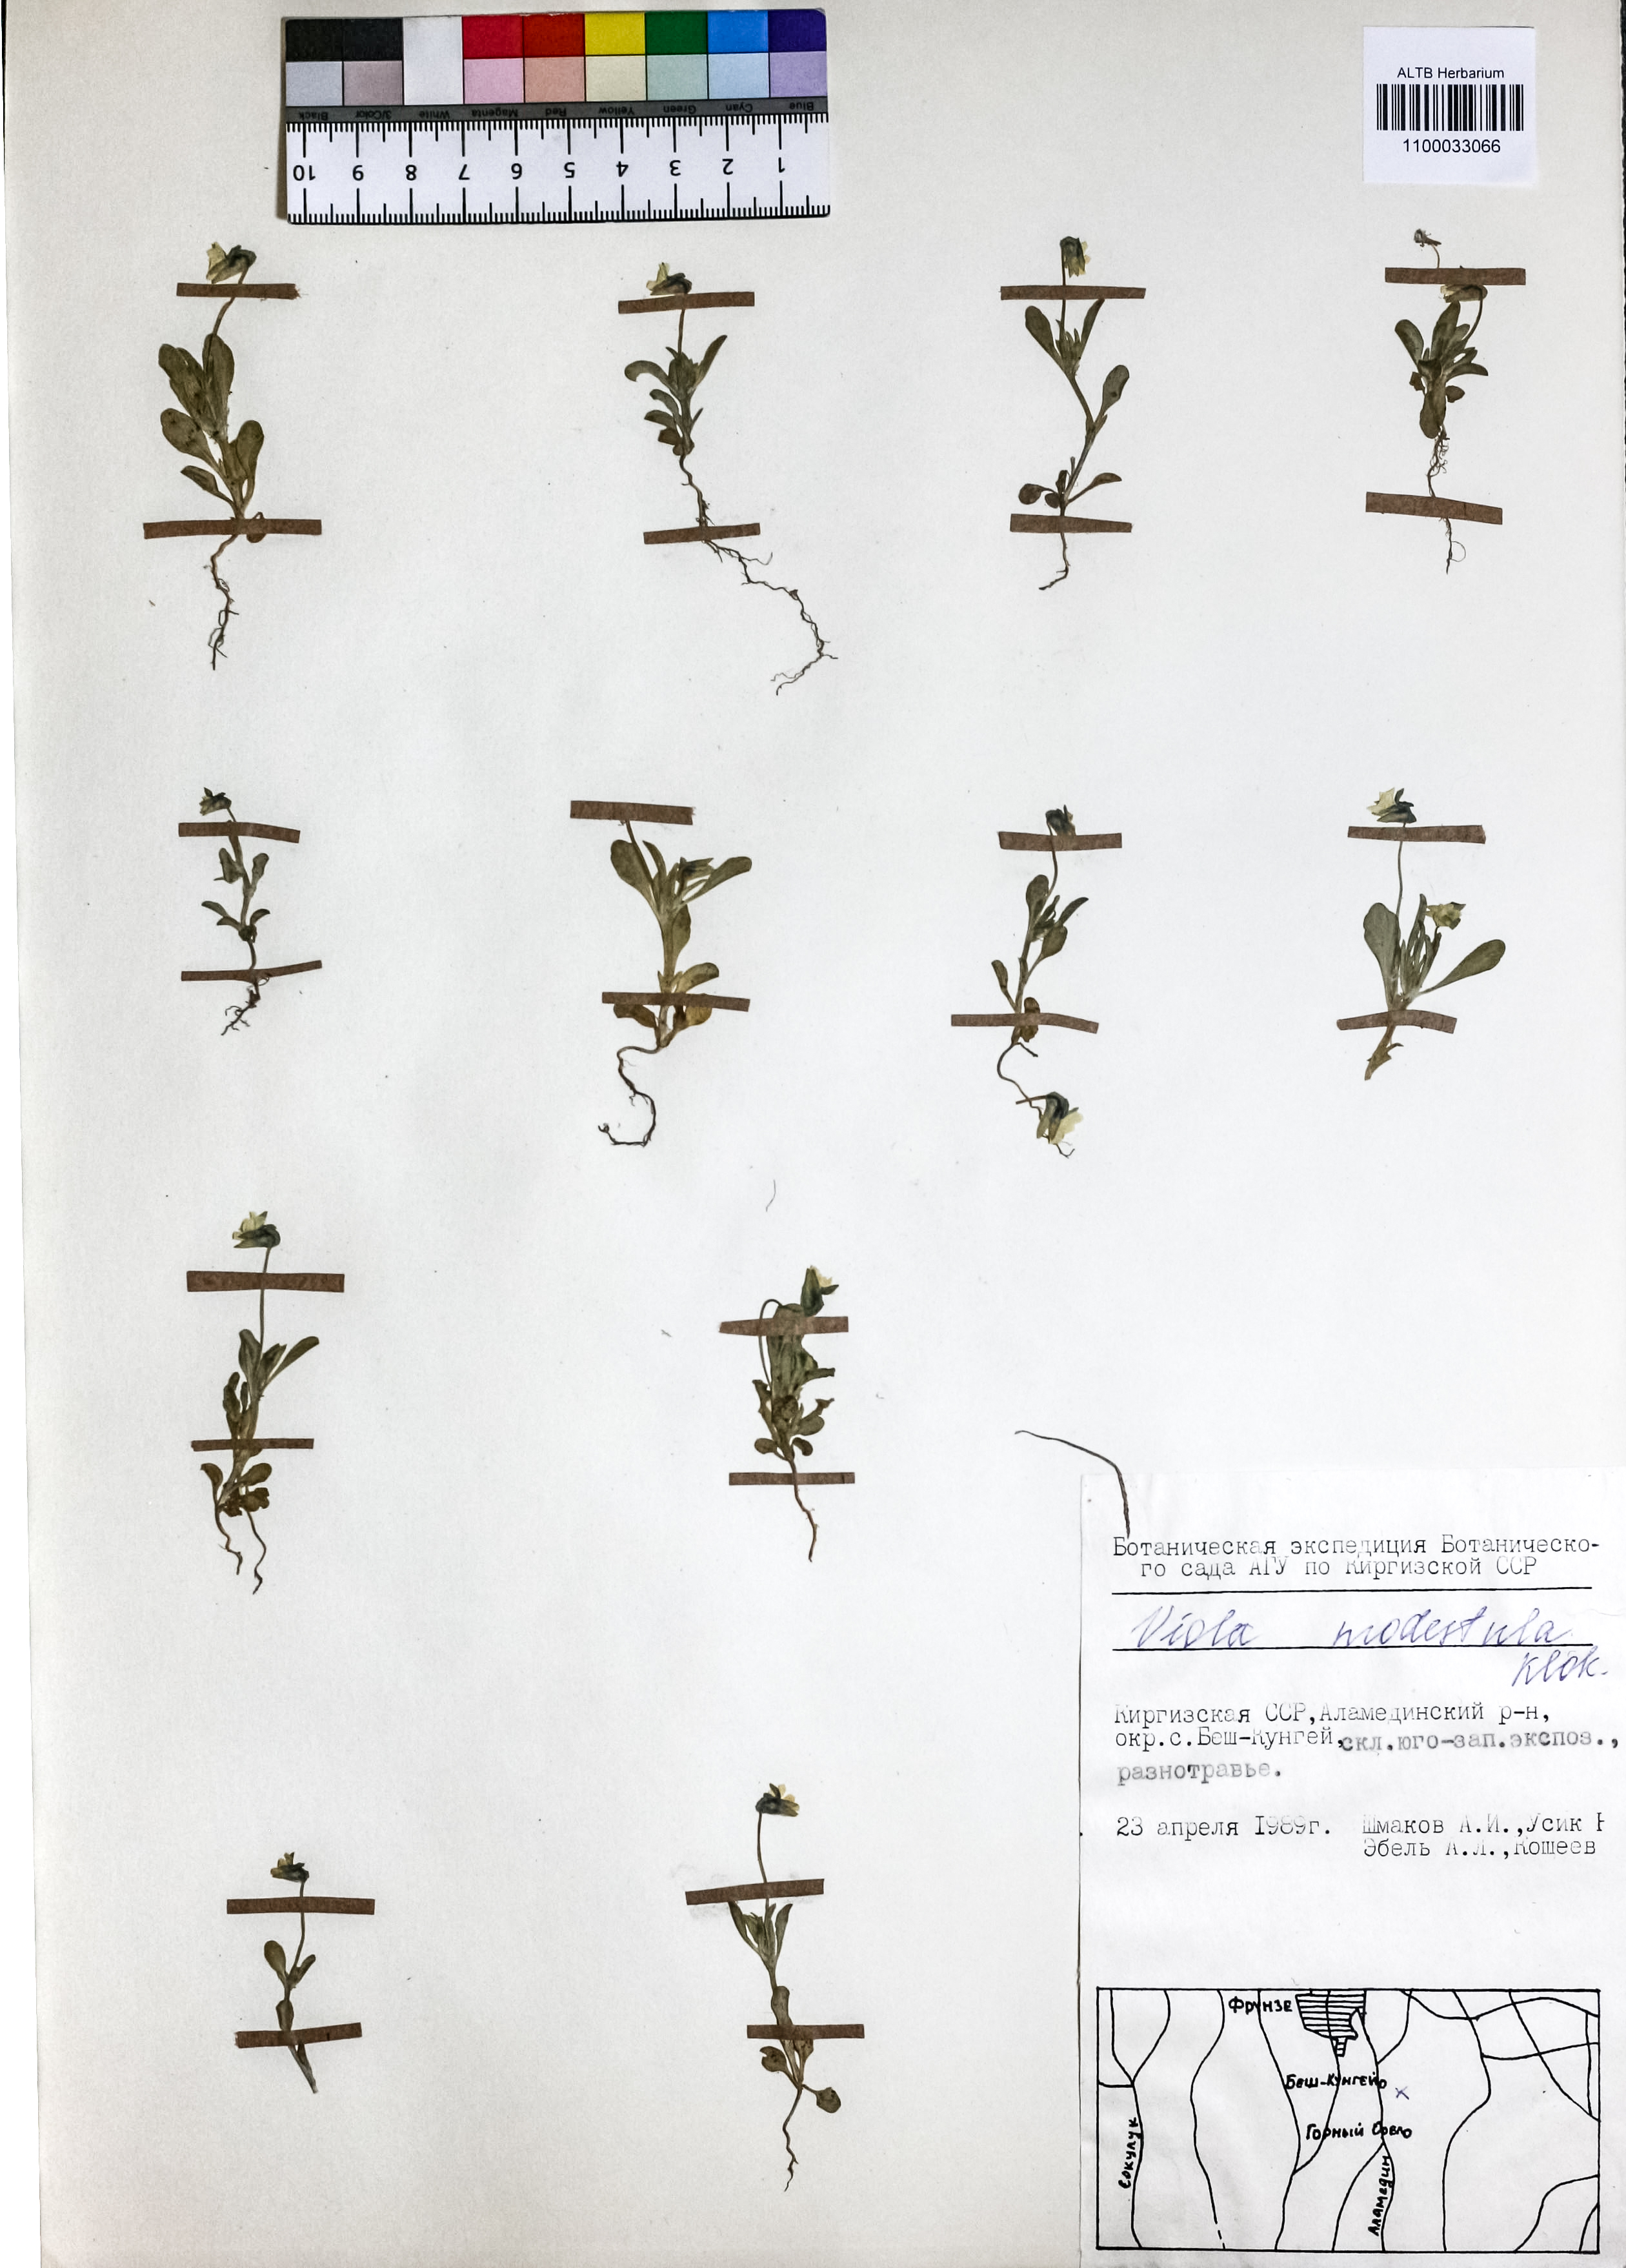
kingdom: Plantae
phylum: Tracheophyta
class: Magnoliopsida
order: Malpighiales
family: Violaceae
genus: Viola
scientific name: Viola modesta
